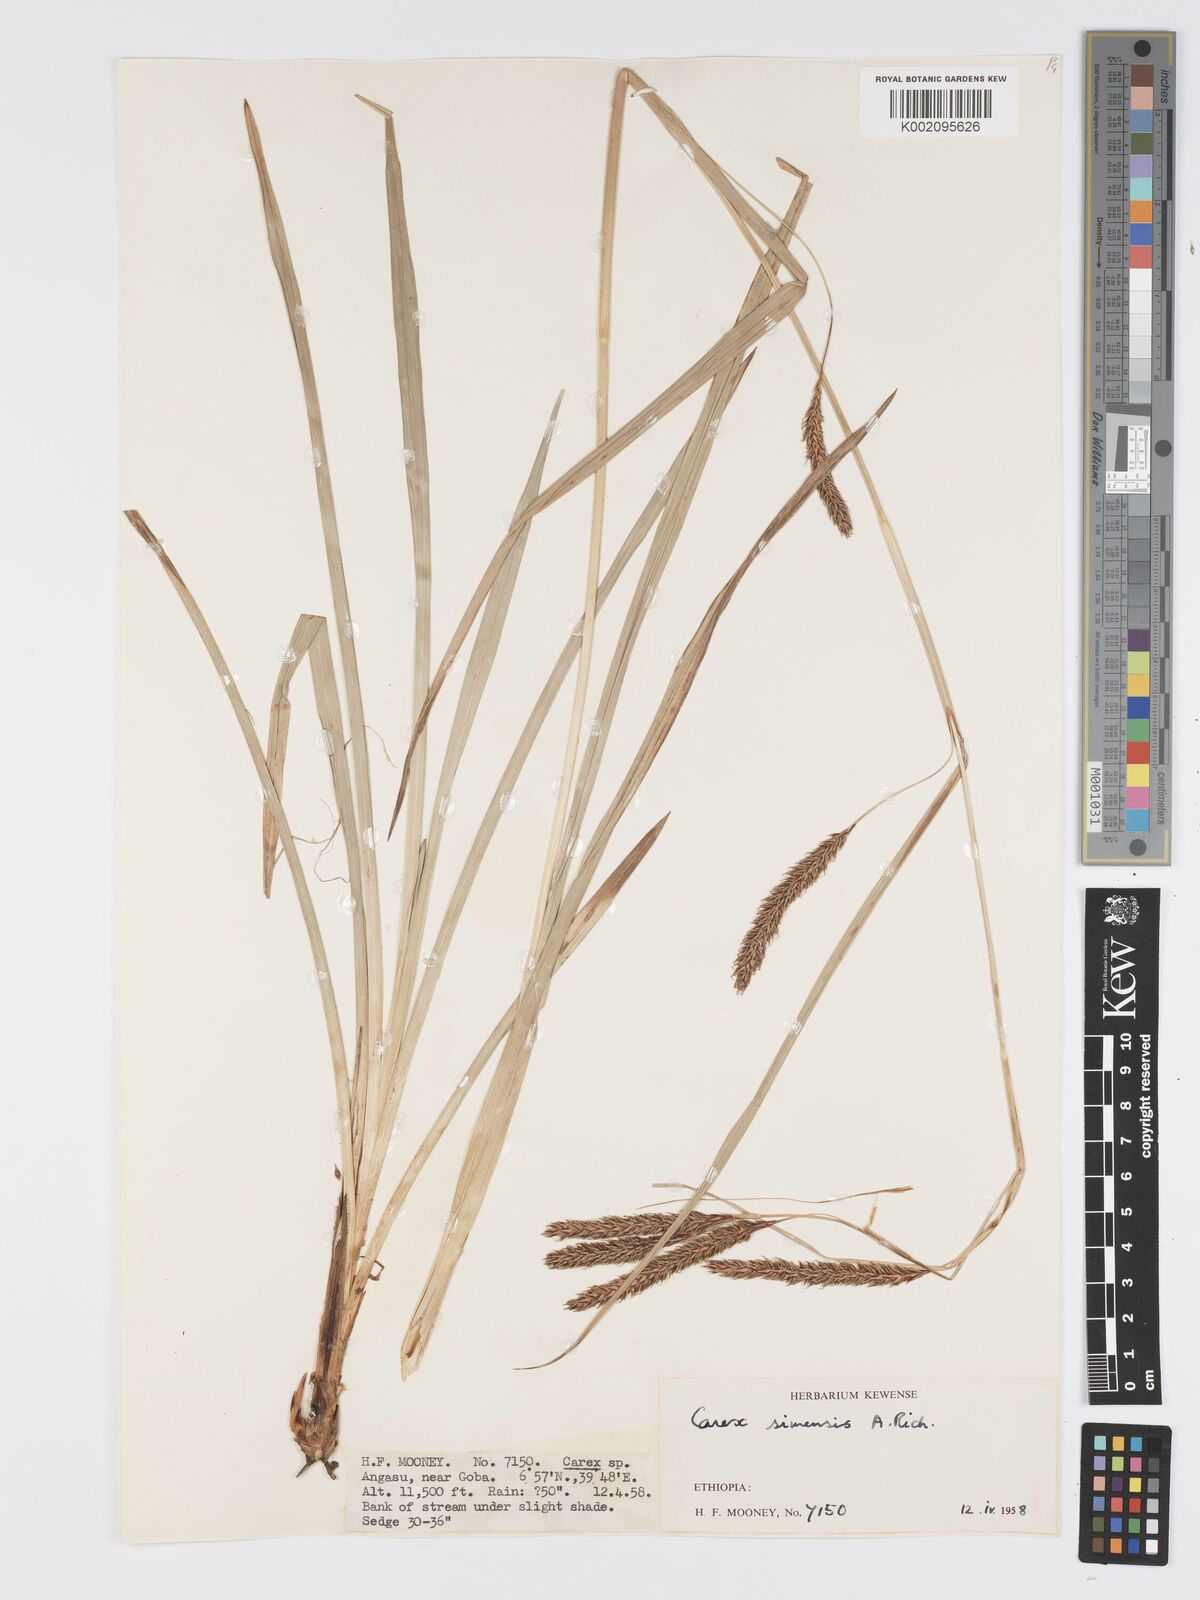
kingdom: Plantae
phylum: Tracheophyta
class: Liliopsida
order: Poales
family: Cyperaceae
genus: Carex
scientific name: Carex simensis
